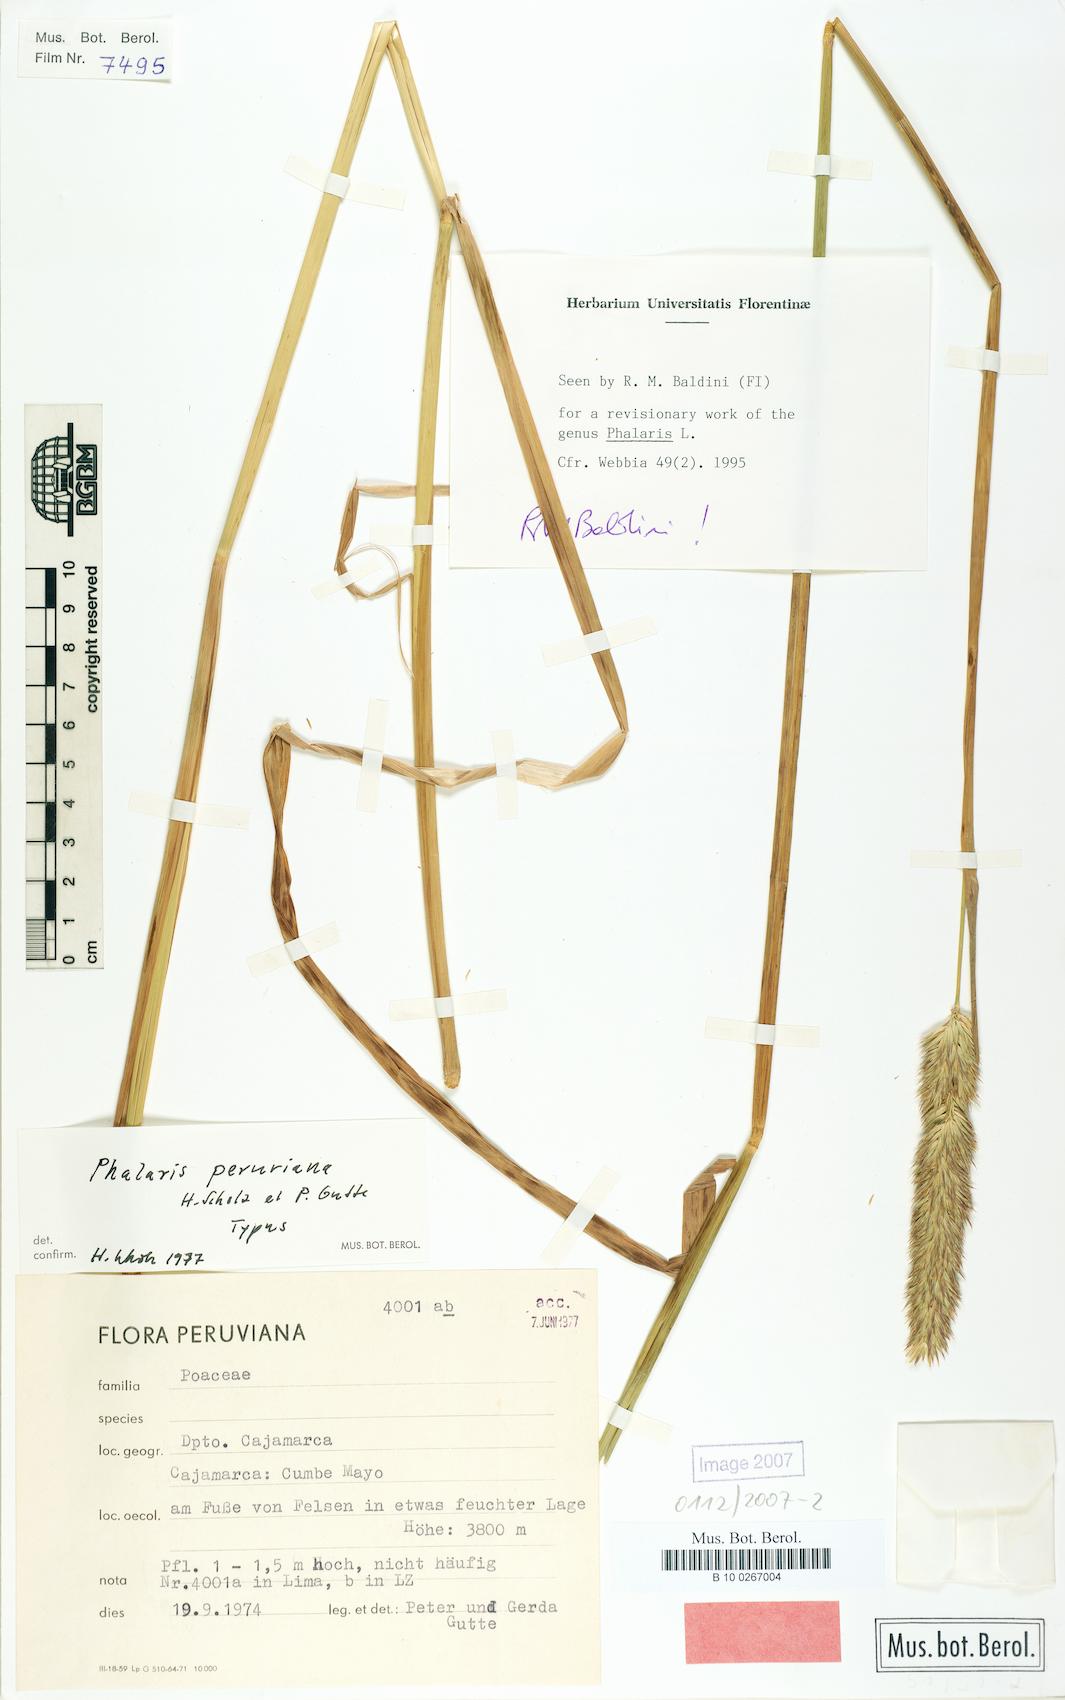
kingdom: Plantae
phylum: Tracheophyta
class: Liliopsida
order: Poales
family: Poaceae
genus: Phalaris
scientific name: Phalaris peruviana
